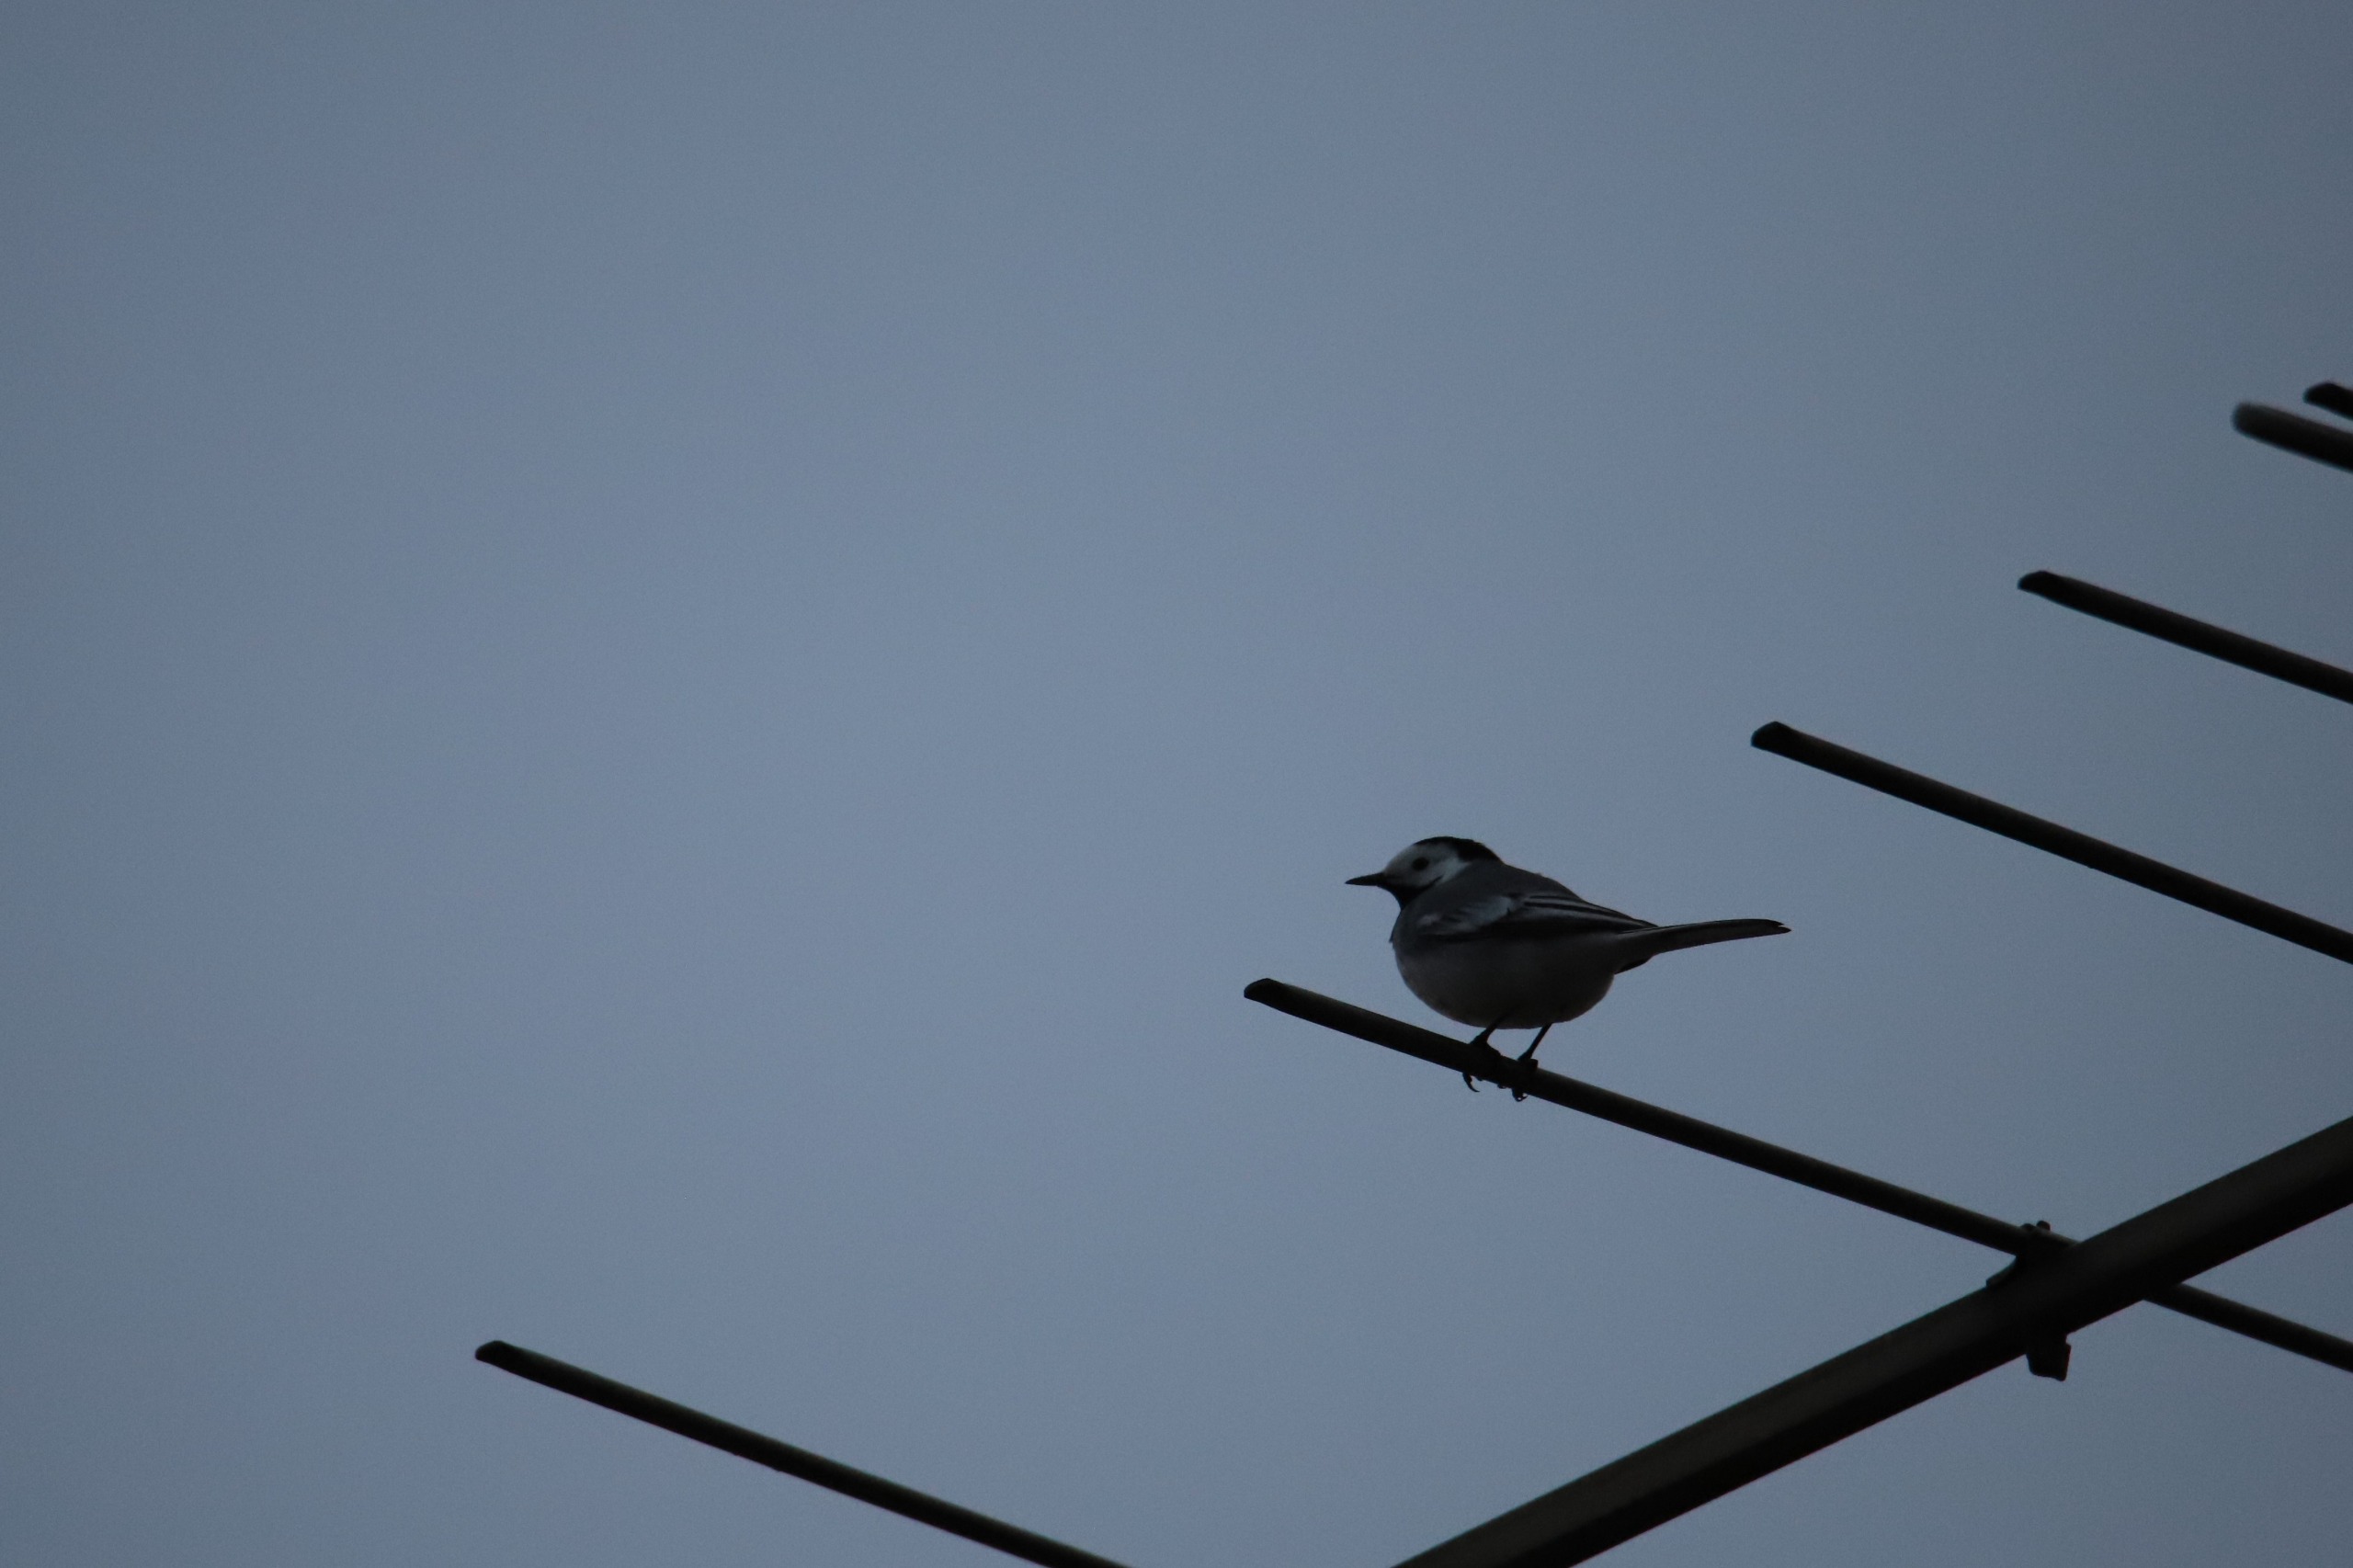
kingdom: Animalia
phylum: Chordata
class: Aves
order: Passeriformes
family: Motacillidae
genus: Motacilla
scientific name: Motacilla alba
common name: Hvid vipstjert
